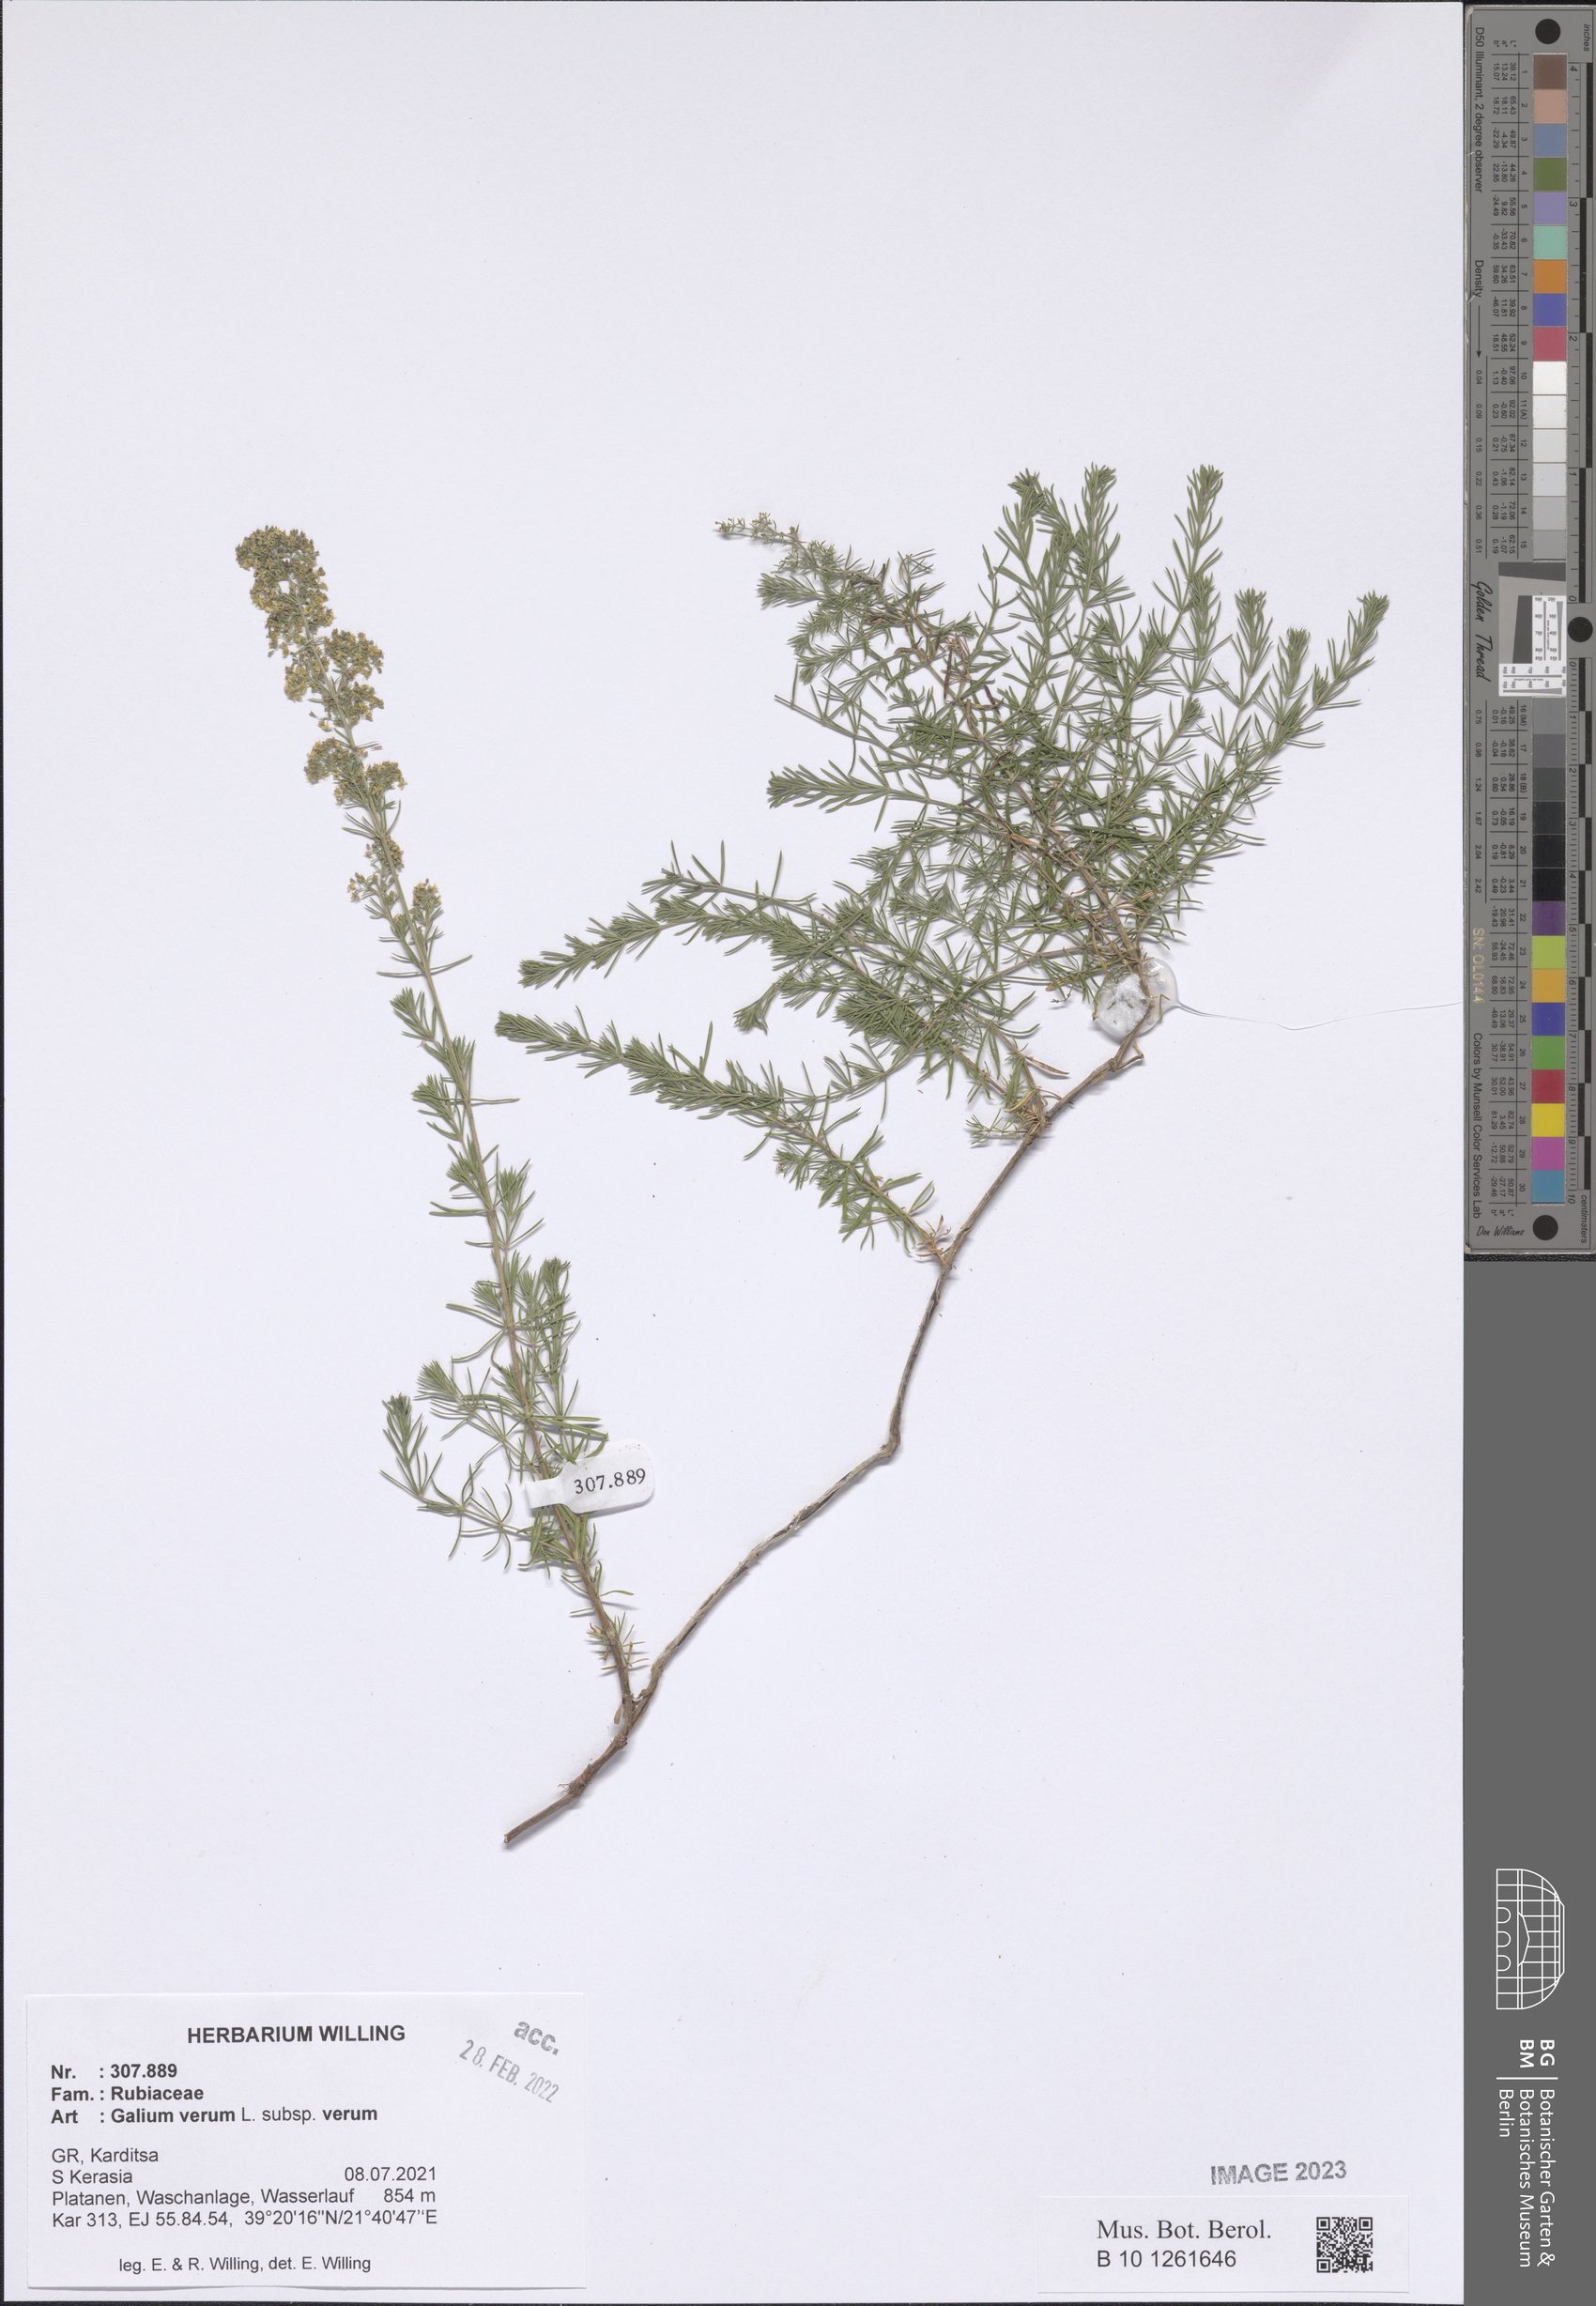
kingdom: Plantae
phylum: Tracheophyta
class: Magnoliopsida
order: Gentianales
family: Rubiaceae
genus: Galium
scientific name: Galium verum
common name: Lady's bedstraw
